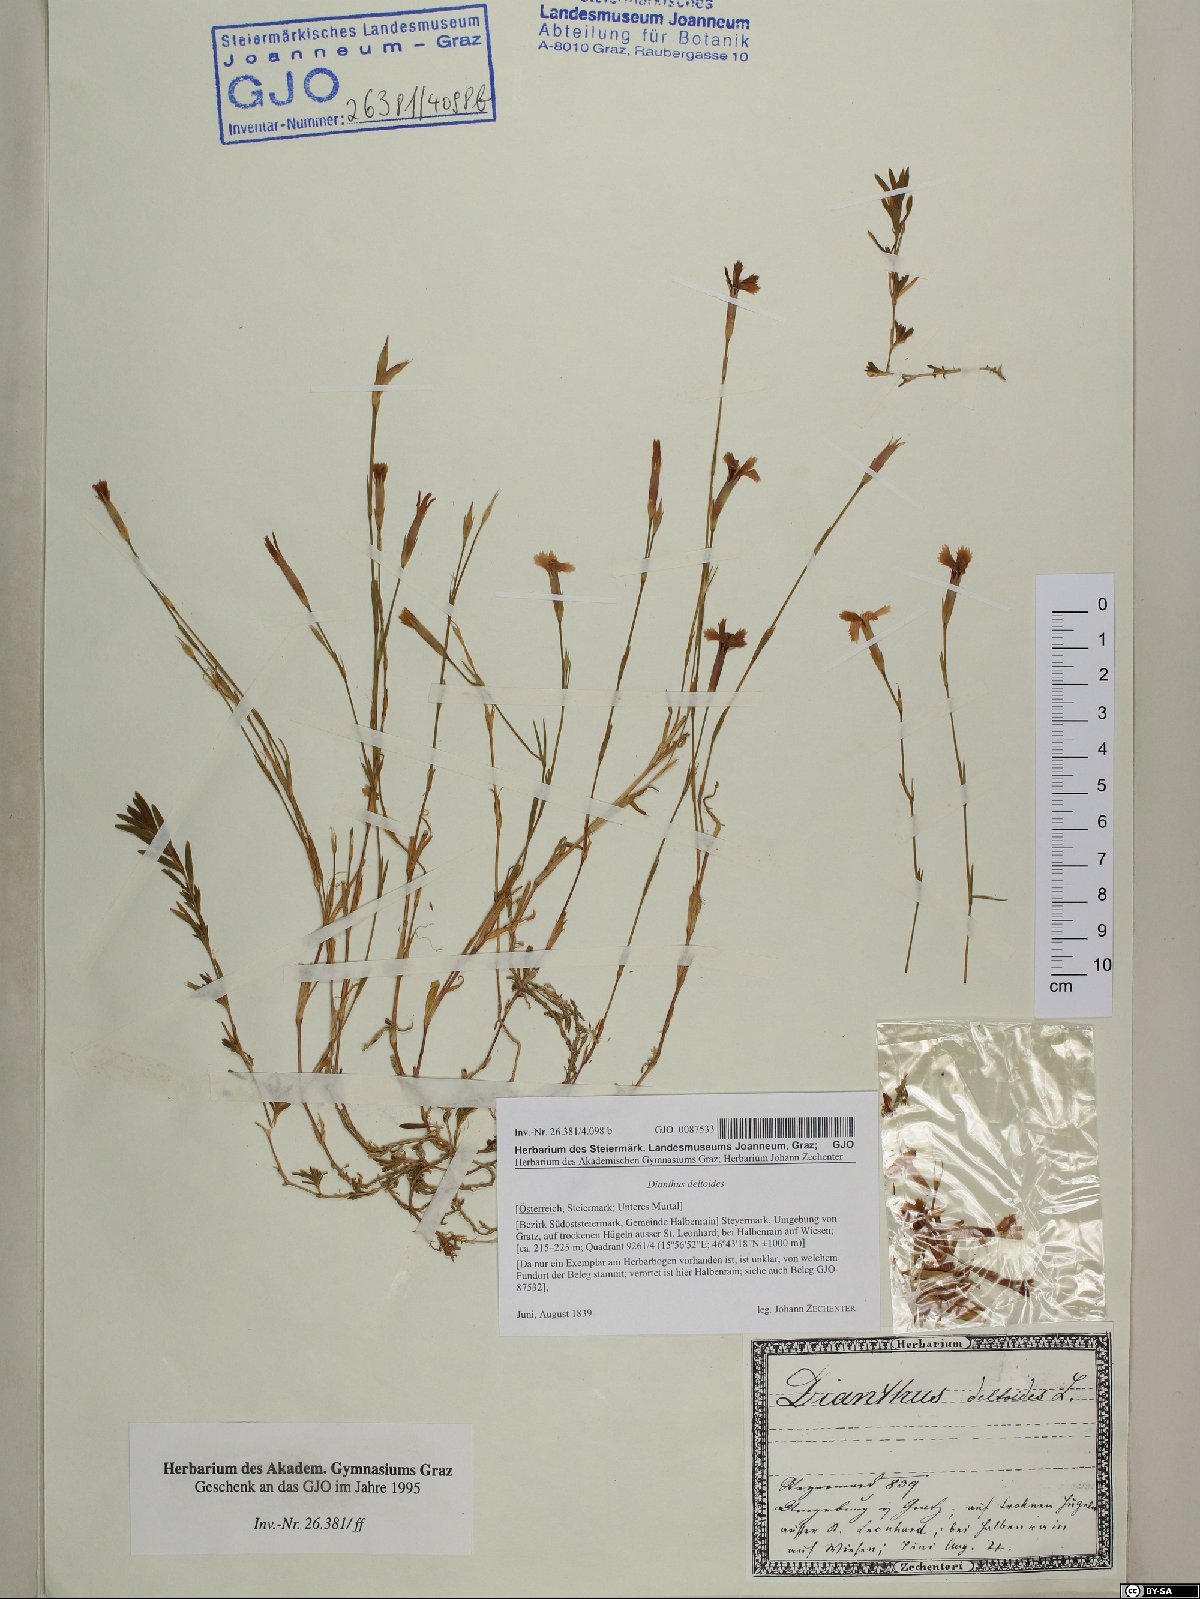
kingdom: Plantae
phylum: Tracheophyta
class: Magnoliopsida
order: Caryophyllales
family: Caryophyllaceae
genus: Dianthus
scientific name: Dianthus deltoides
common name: Maiden pink
